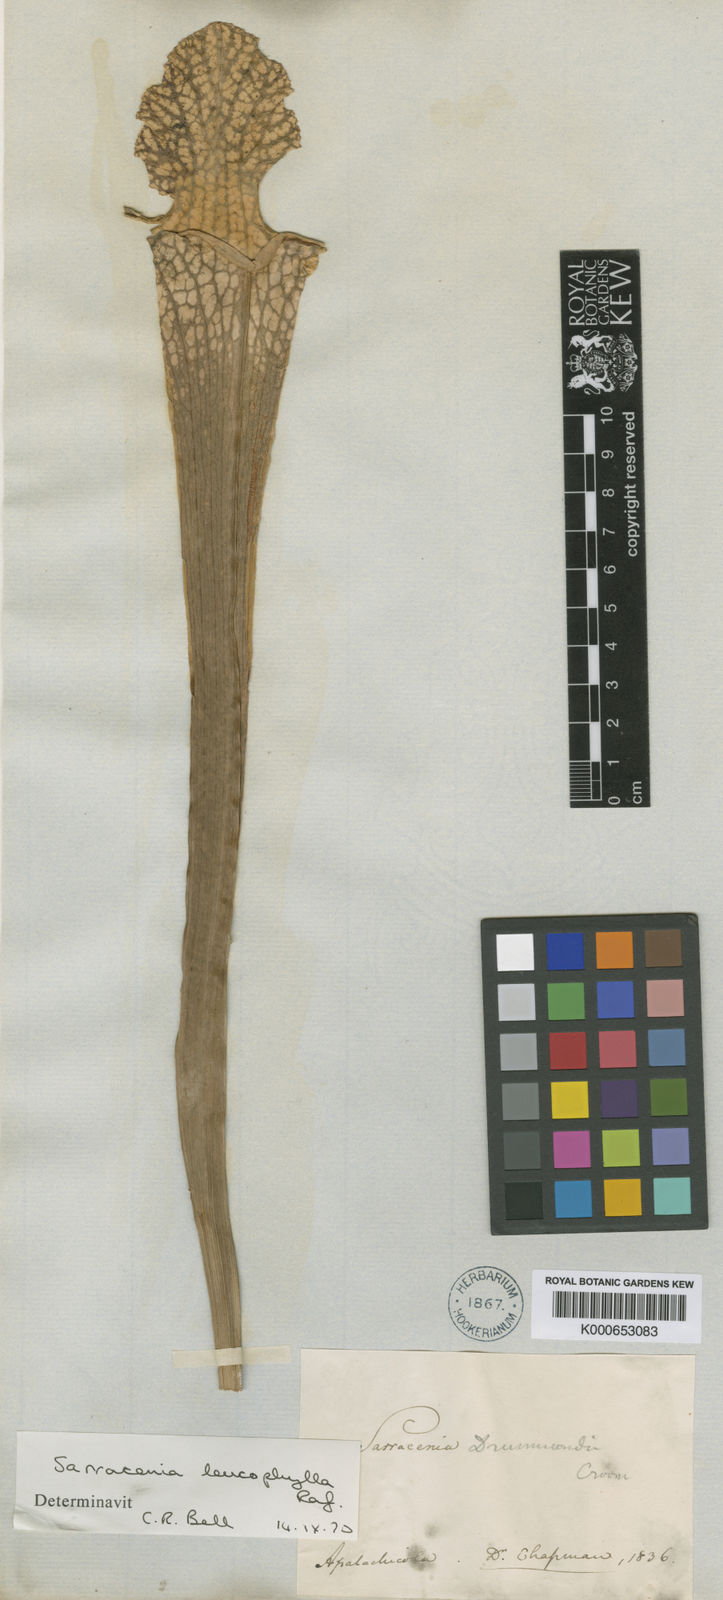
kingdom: Plantae
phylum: Tracheophyta
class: Magnoliopsida
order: Ericales
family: Sarraceniaceae
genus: Sarracenia
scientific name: Sarracenia leucophylla
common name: Purple trumpetleaf
